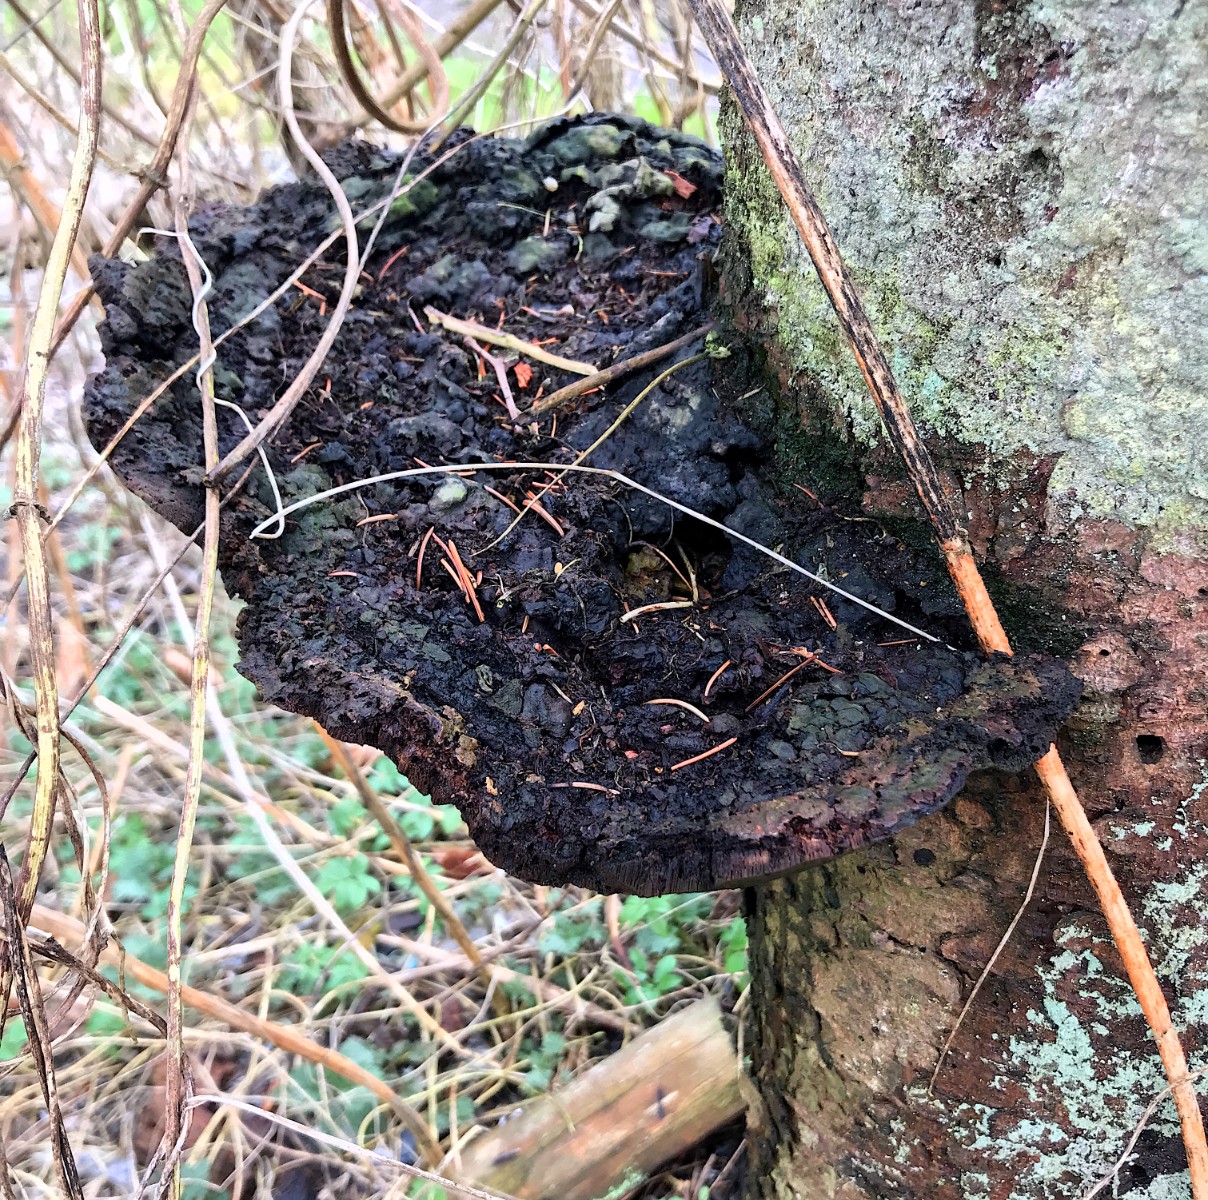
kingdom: Fungi
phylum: Basidiomycota
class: Agaricomycetes
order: Polyporales
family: Laetiporaceae
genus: Phaeolus
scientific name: Phaeolus schweinitzii
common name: brunporesvamp
